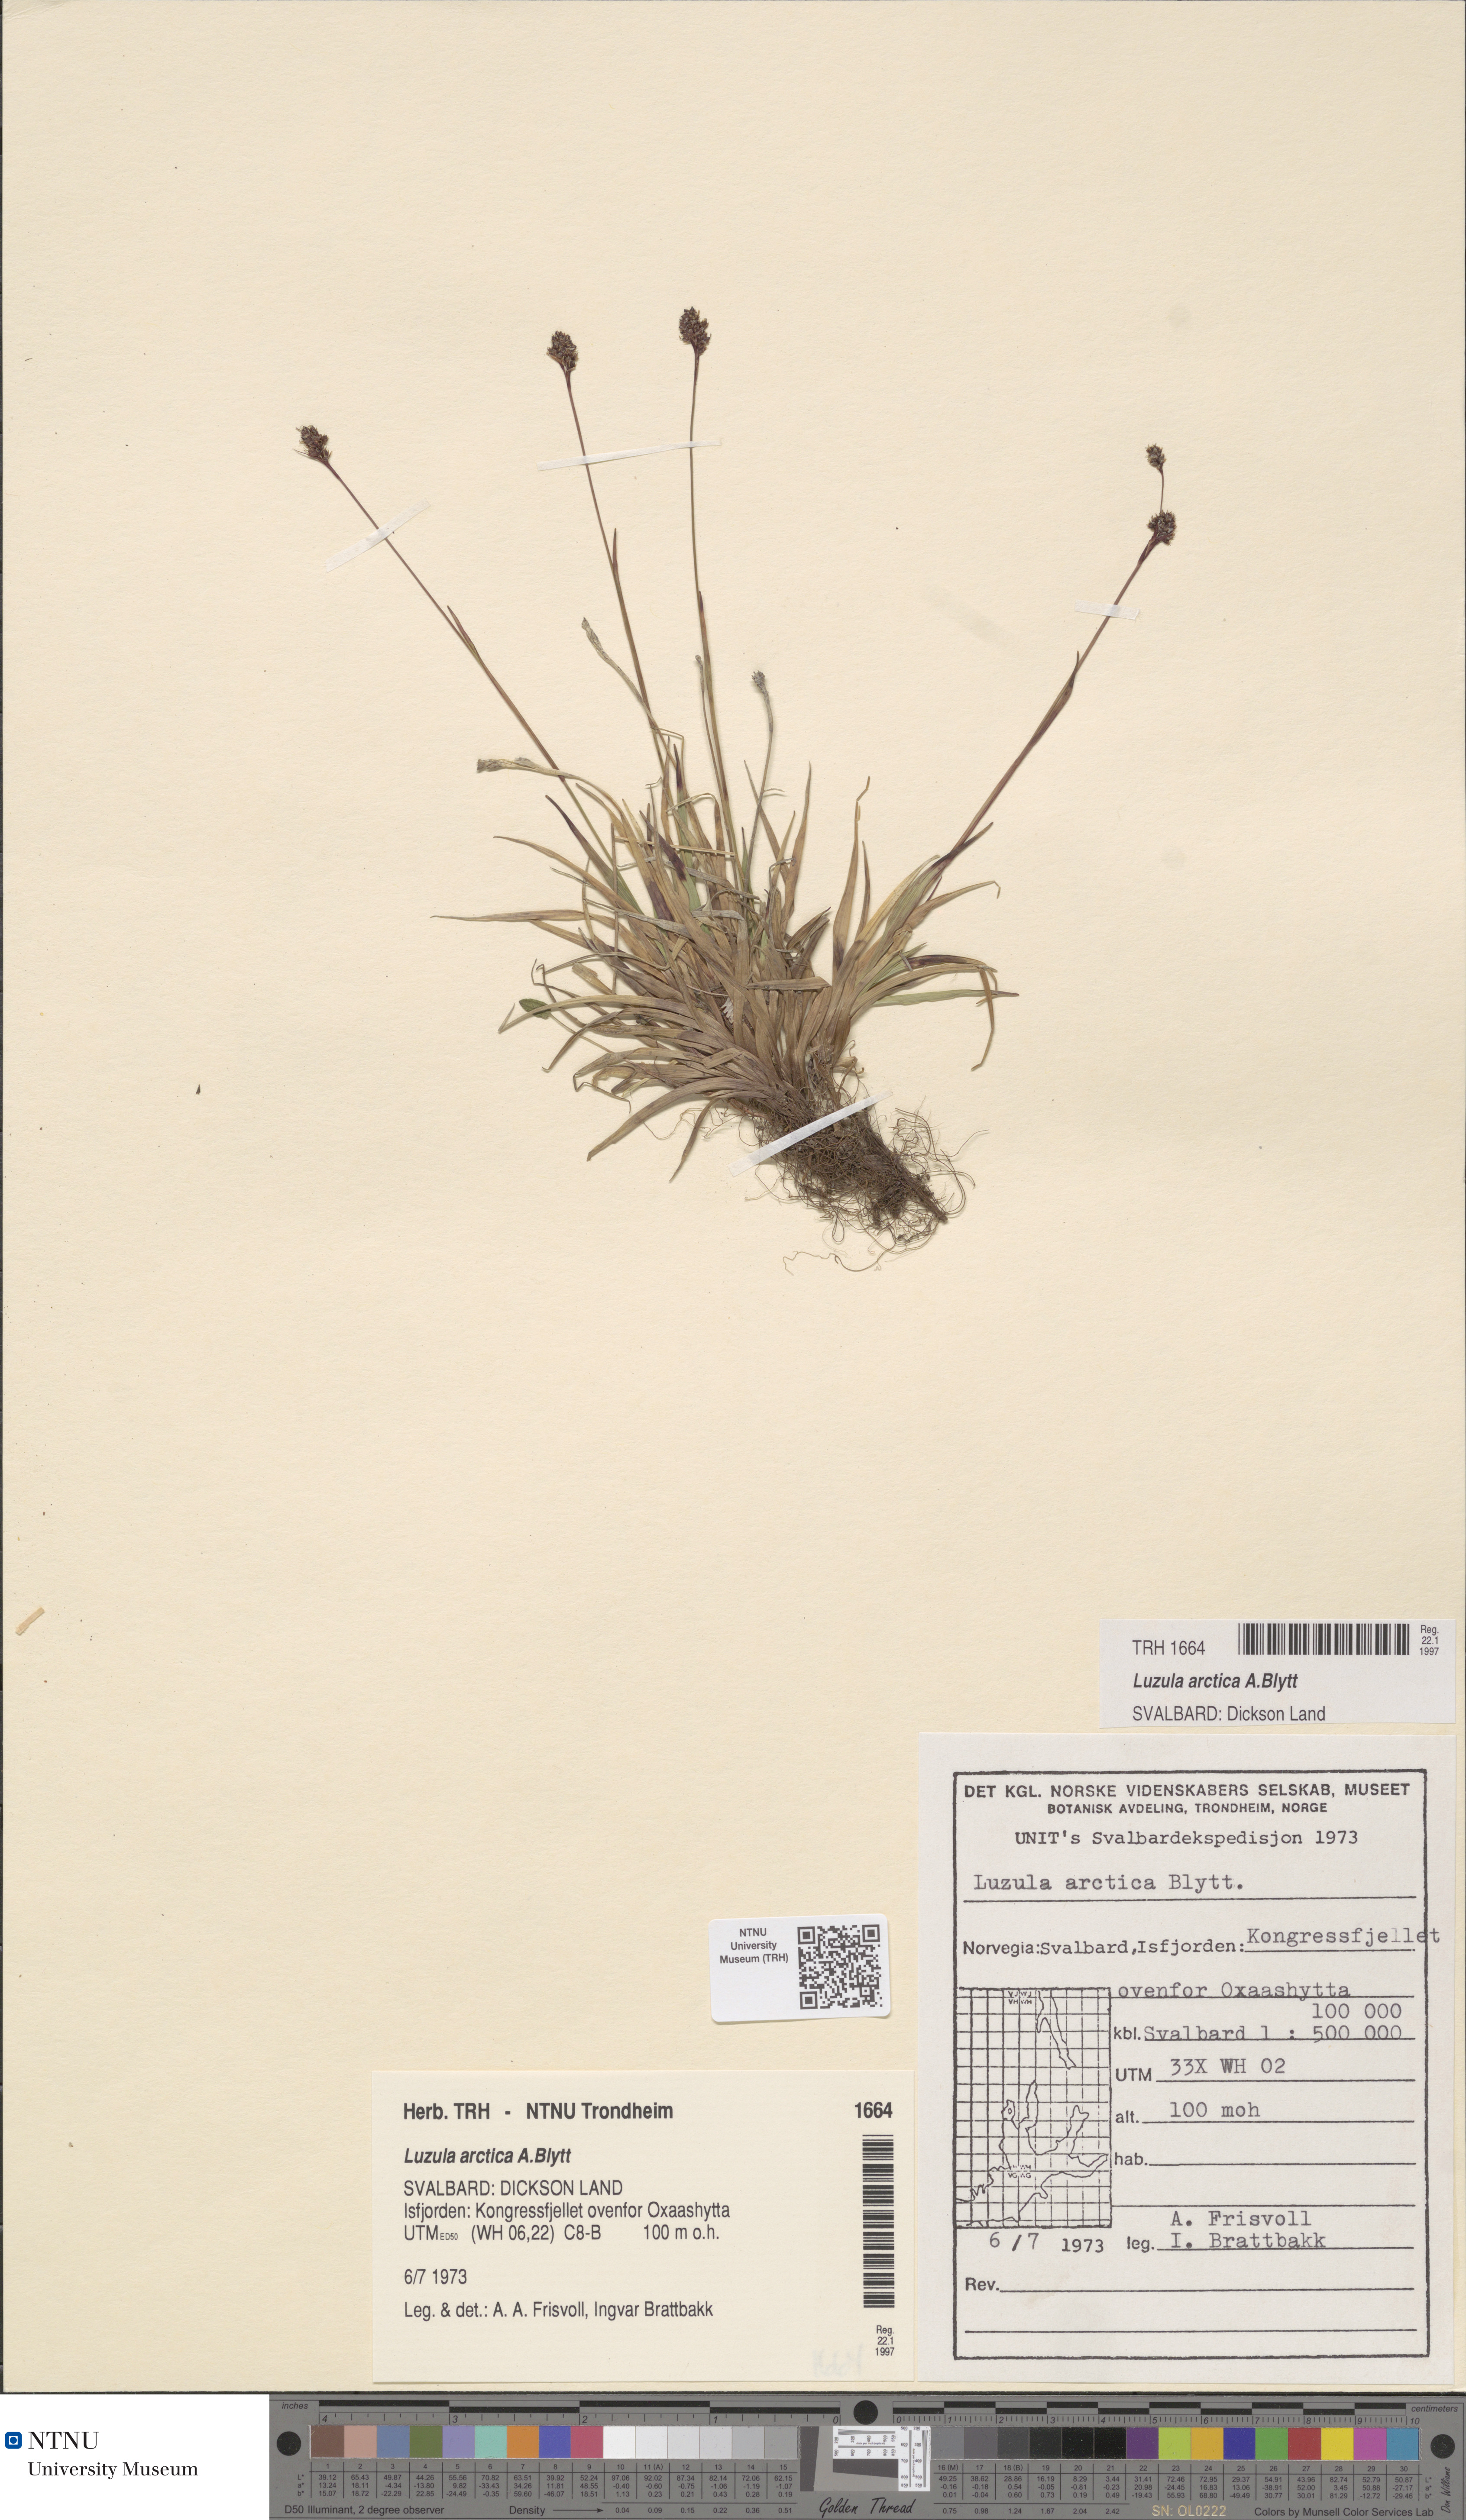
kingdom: Plantae
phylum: Tracheophyta
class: Liliopsida
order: Poales
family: Juncaceae
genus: Luzula
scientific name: Luzula nivalis
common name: Arctic woodrush
